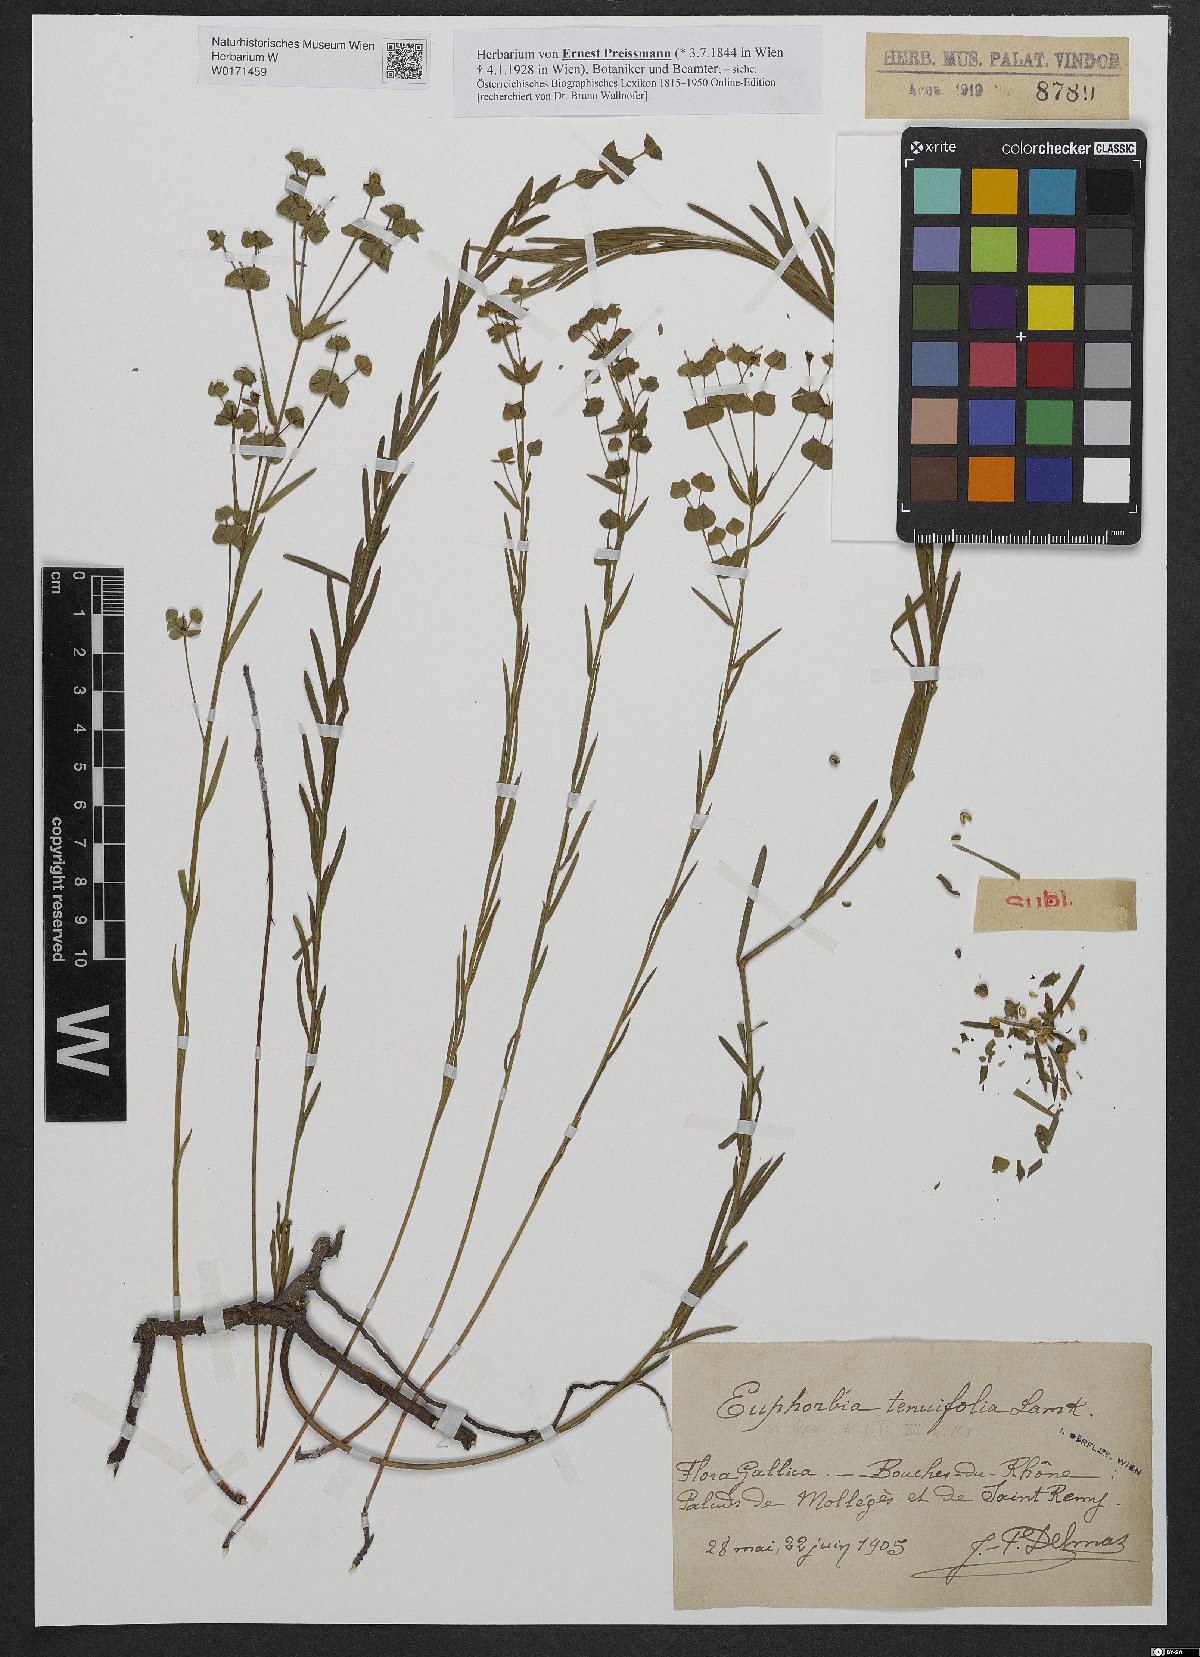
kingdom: Plantae
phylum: Tracheophyta
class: Magnoliopsida
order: Malpighiales
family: Euphorbiaceae
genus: Euphorbia
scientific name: Euphorbia graminifolia
